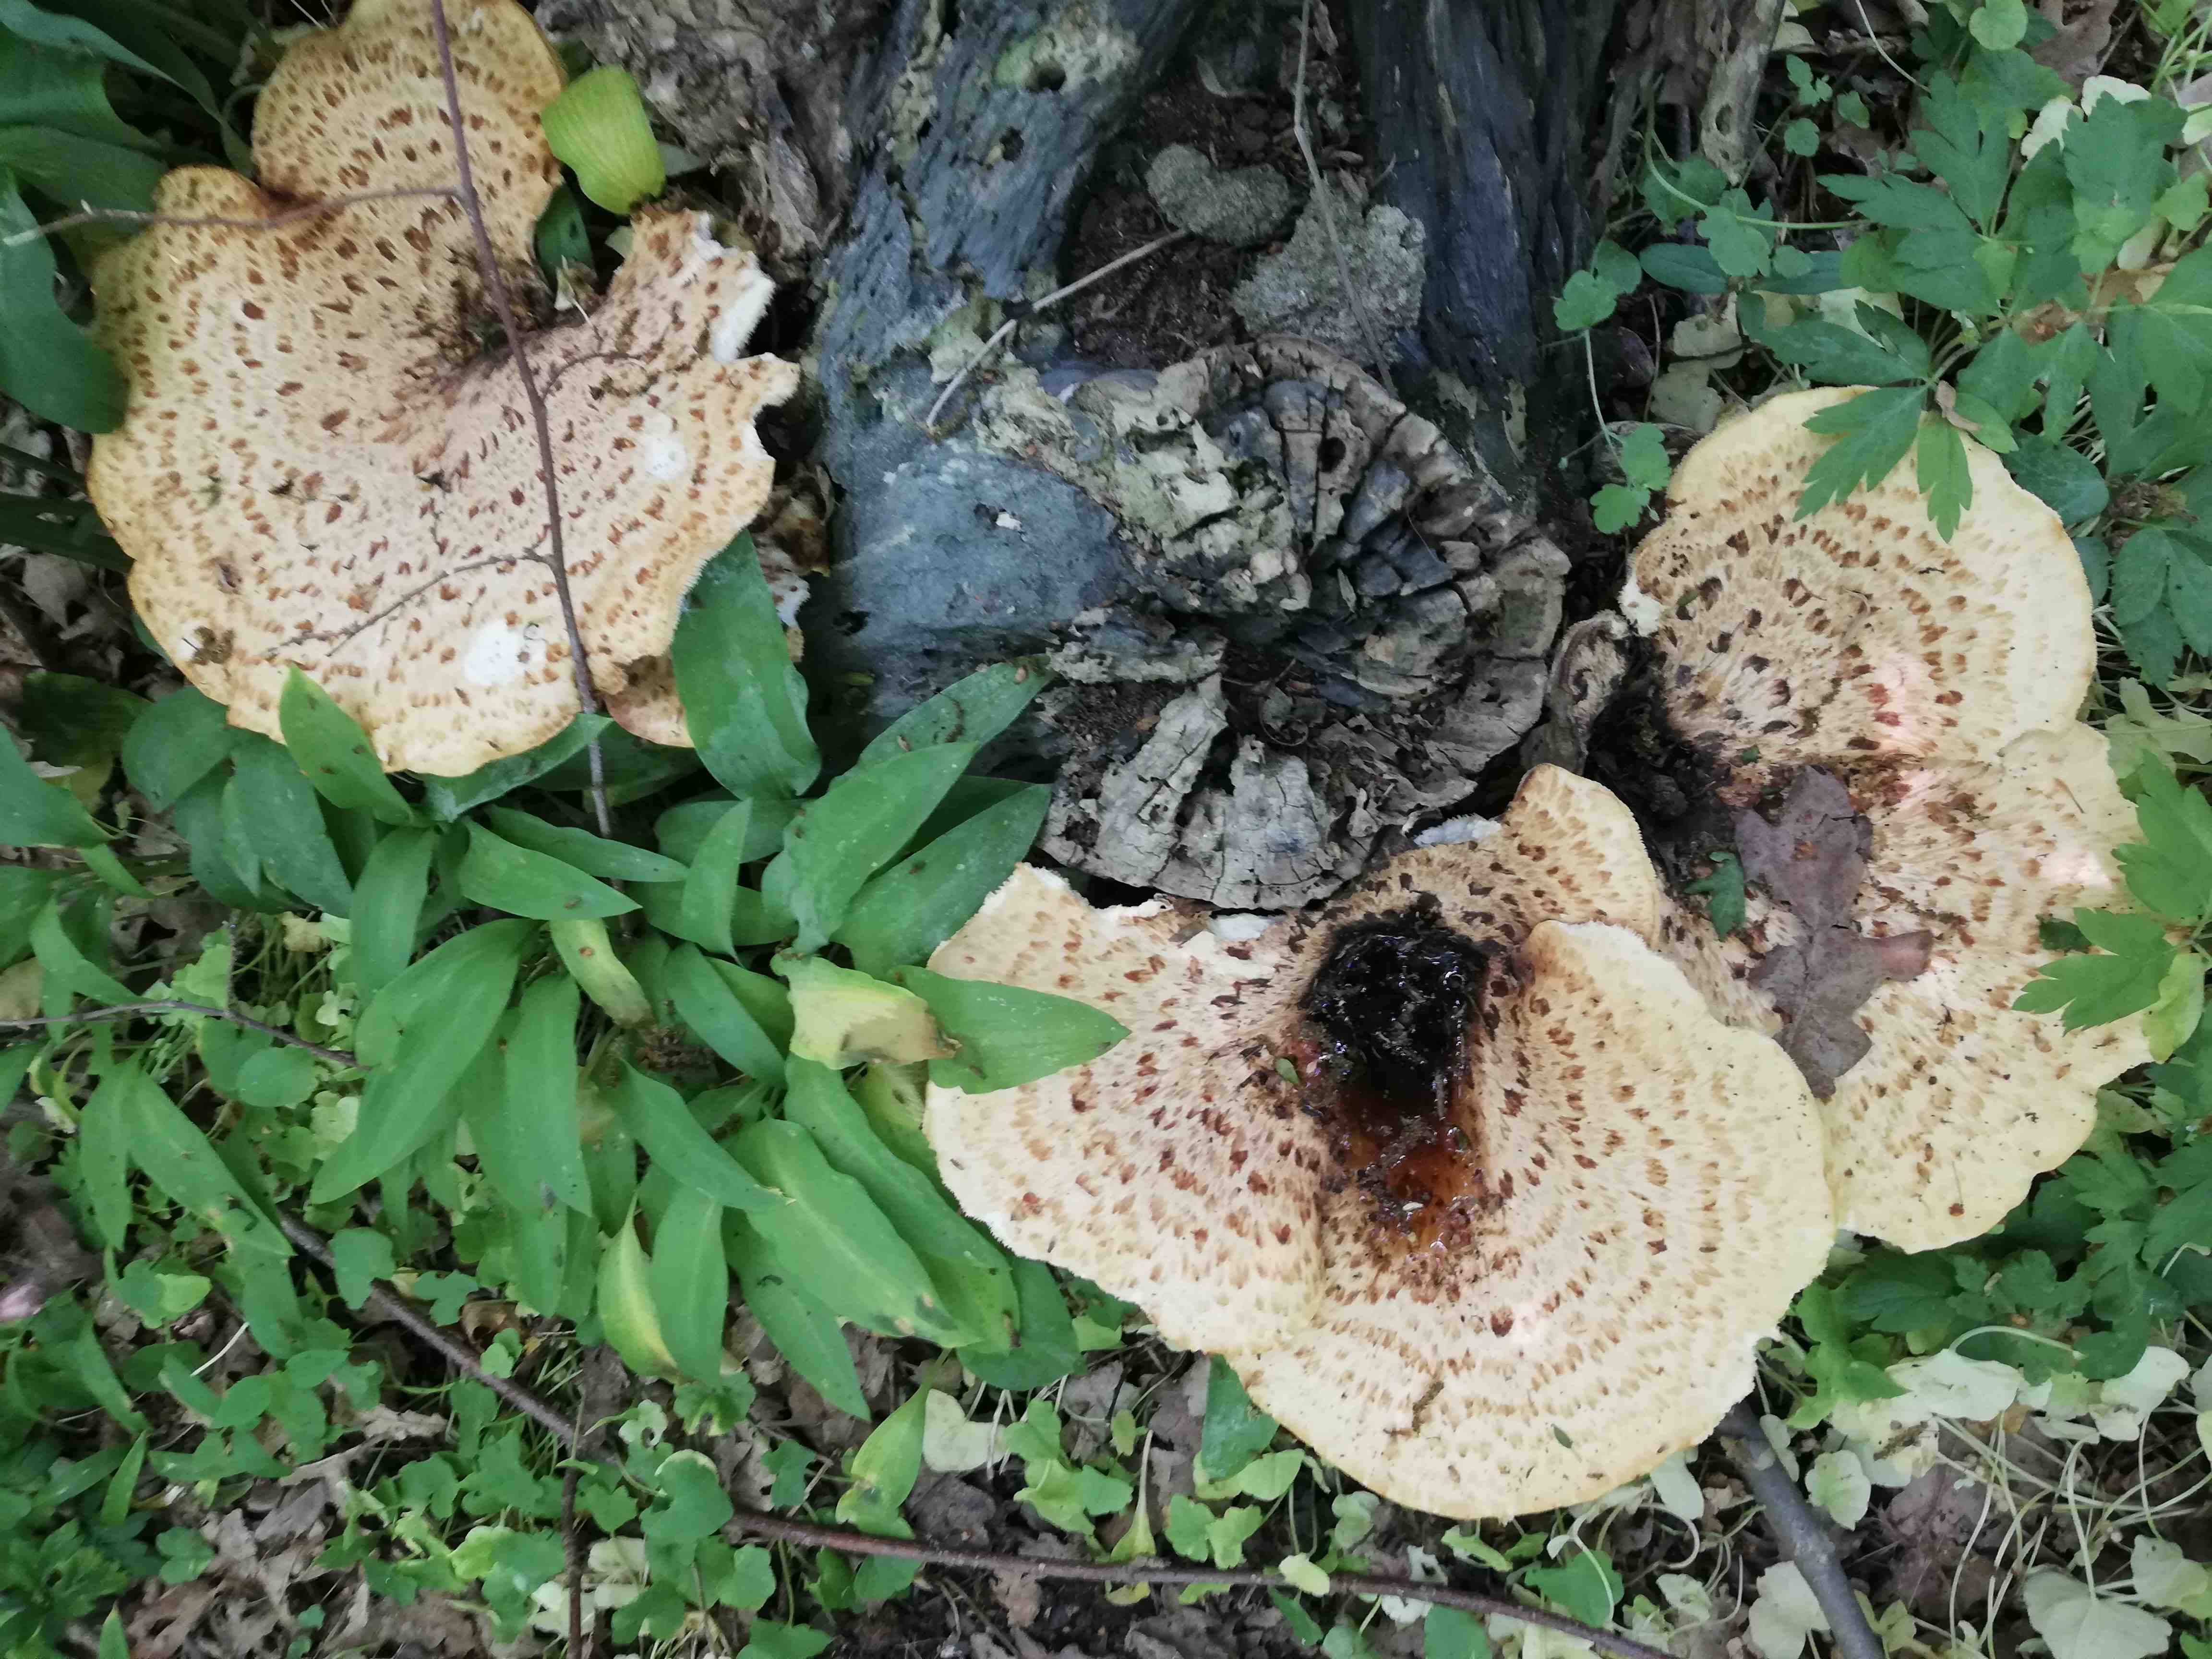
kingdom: Fungi
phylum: Basidiomycota
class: Agaricomycetes
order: Polyporales
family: Polyporaceae
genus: Cerioporus
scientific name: Cerioporus squamosus
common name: skællet stilkporesvamp
